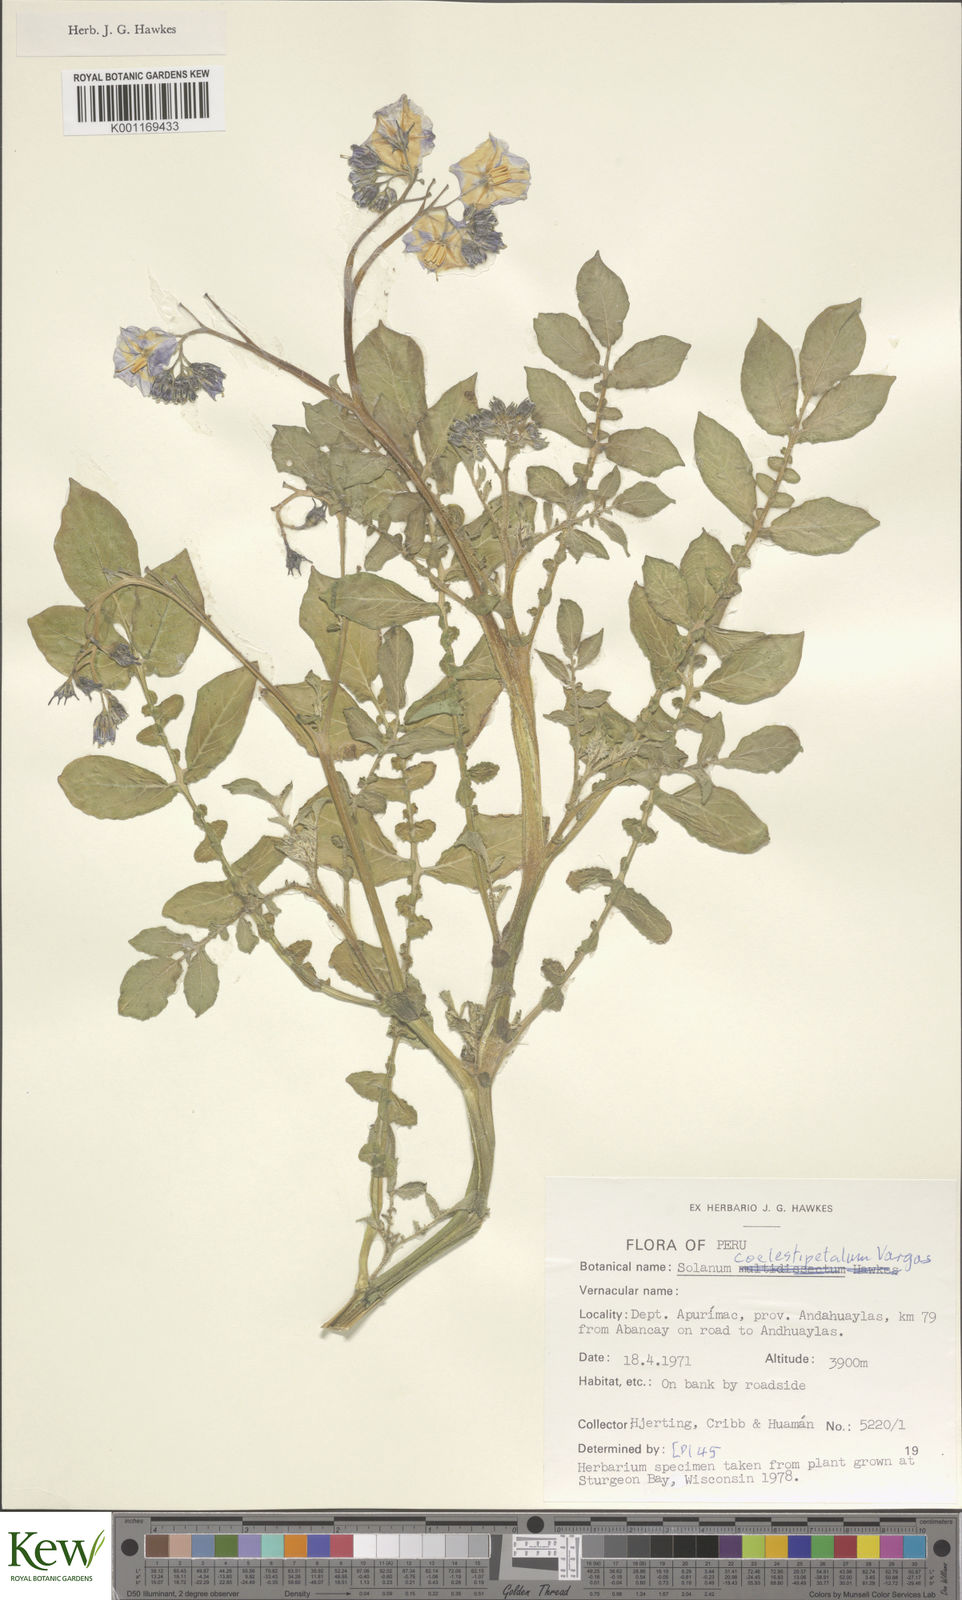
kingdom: Plantae
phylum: Tracheophyta
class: Magnoliopsida
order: Solanales
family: Solanaceae
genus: Solanum
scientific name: Solanum brevicaule
